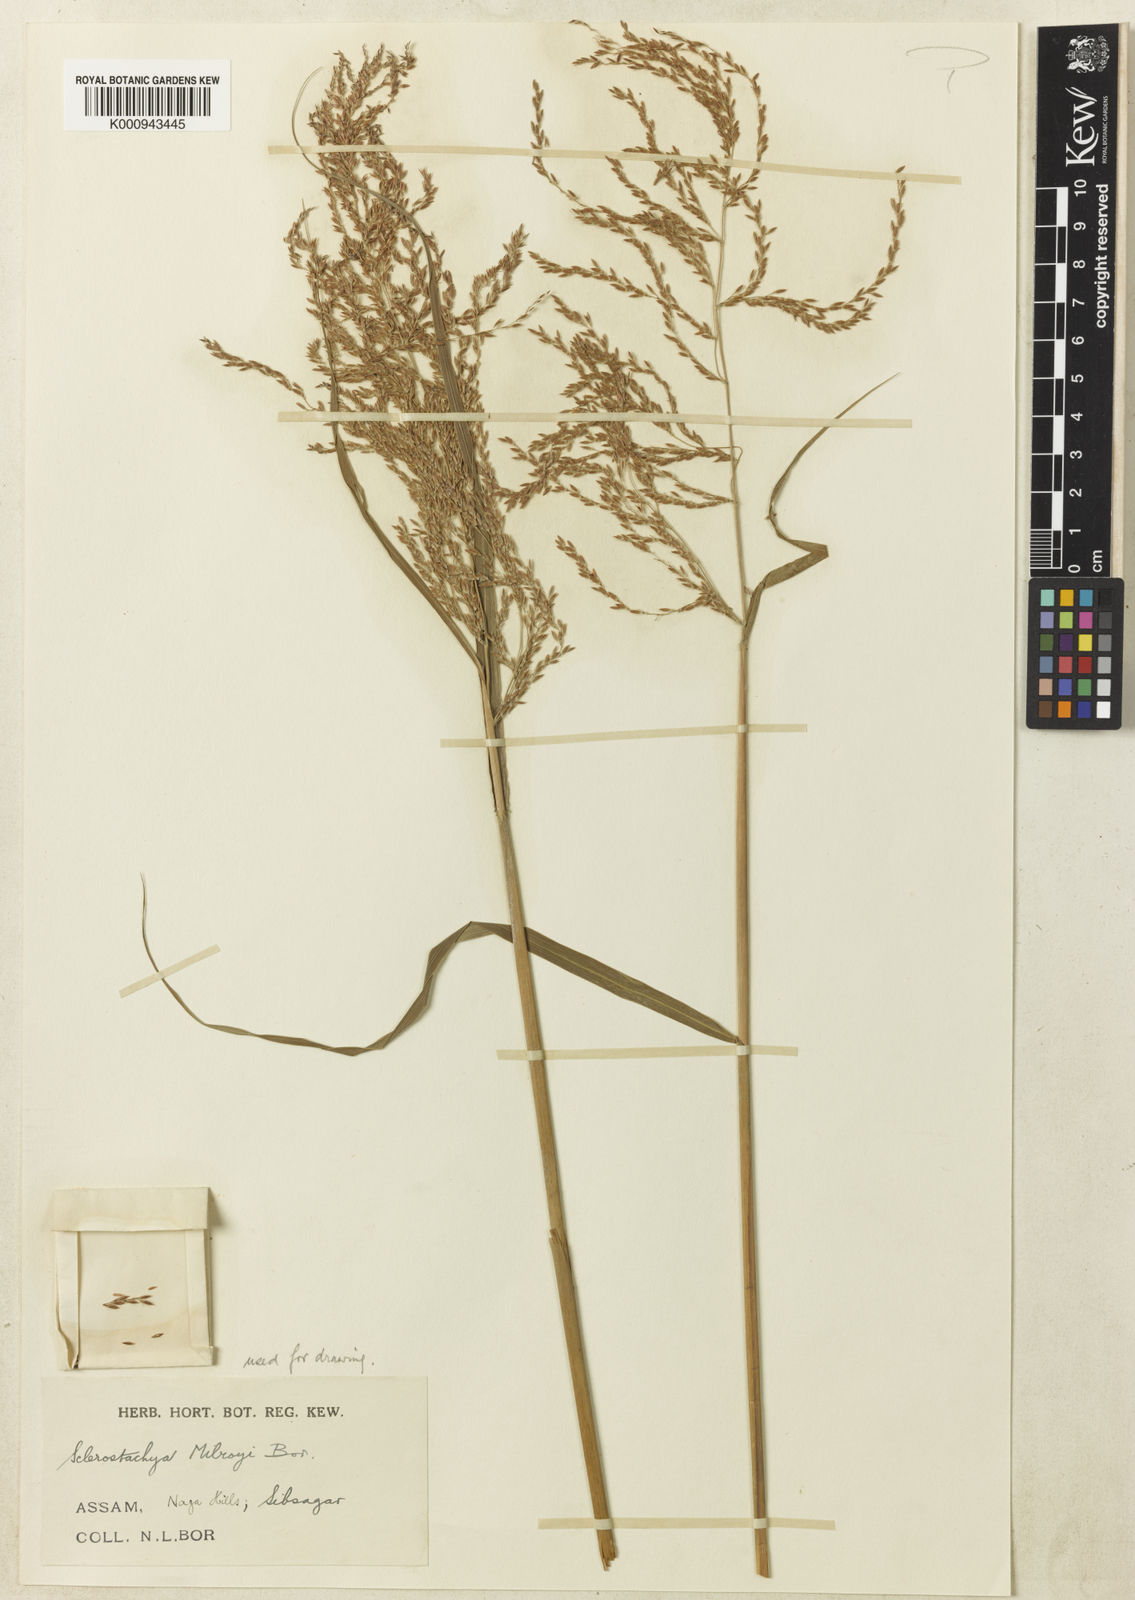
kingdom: Plantae
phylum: Tracheophyta
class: Liliopsida
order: Poales
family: Poaceae
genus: Miscanthus
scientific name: Miscanthus fuscus
